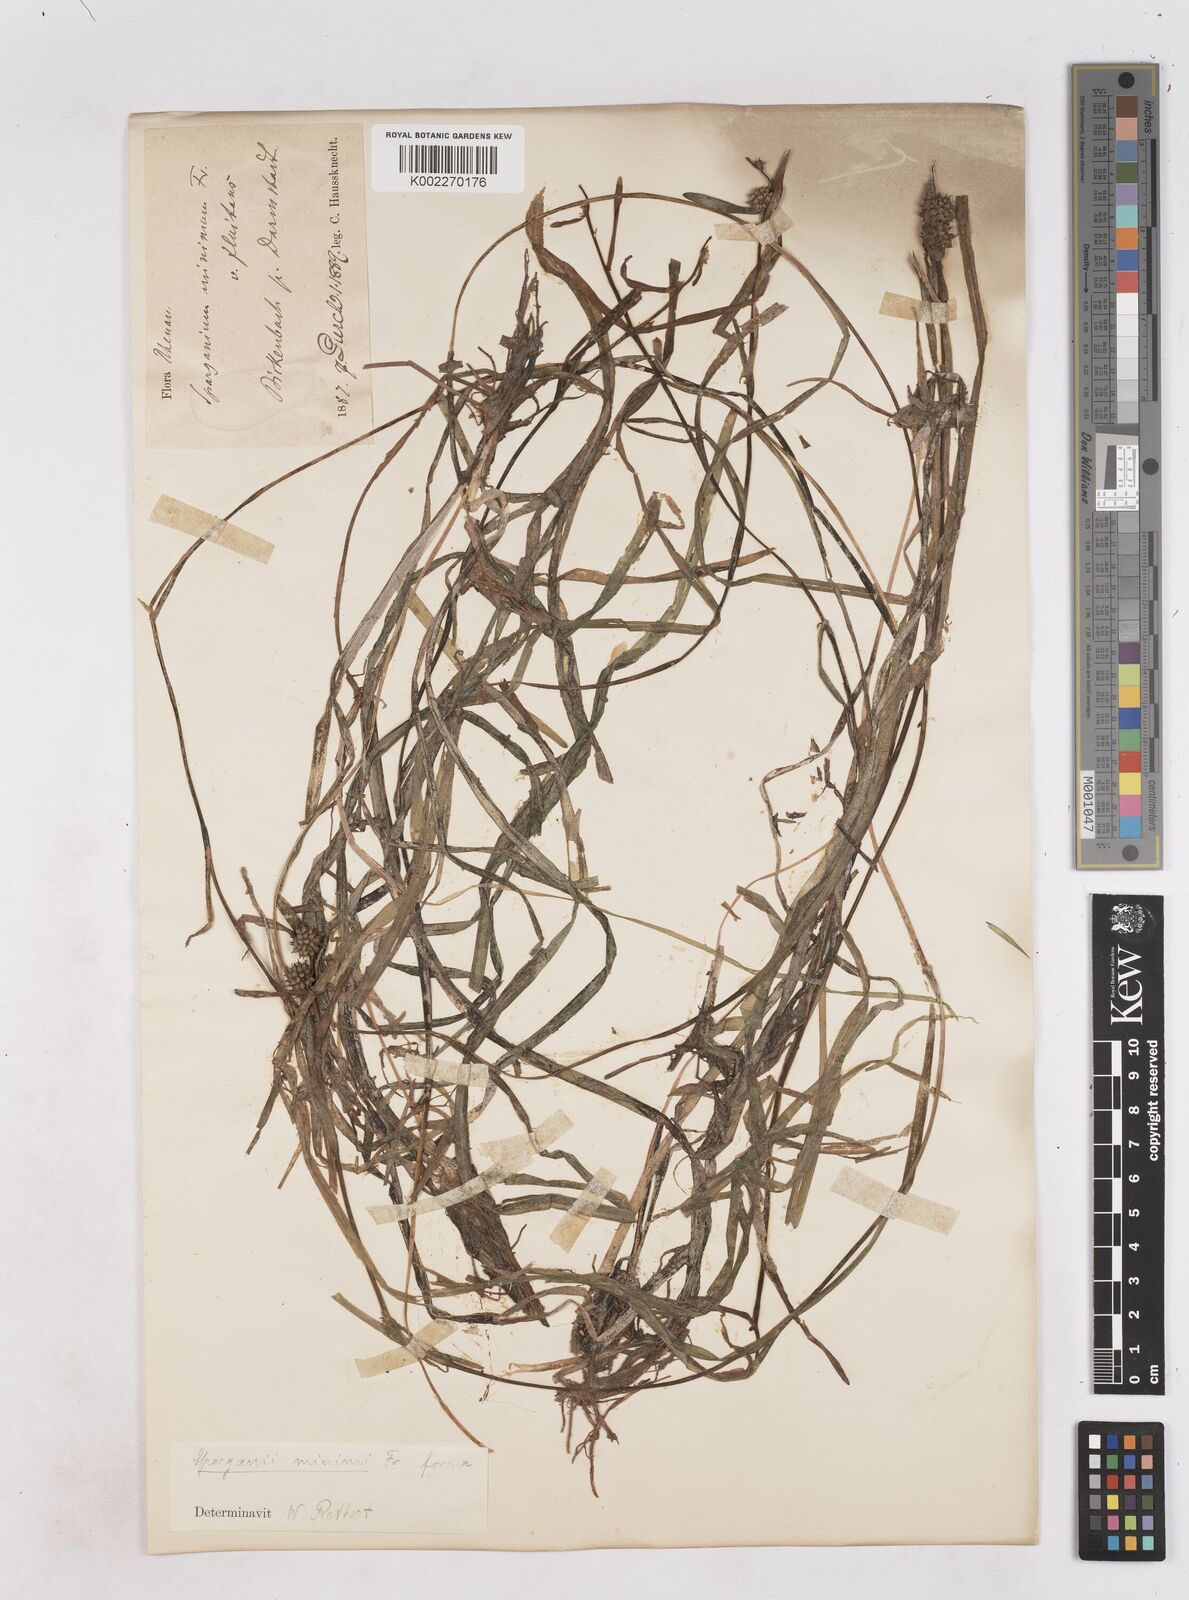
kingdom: Plantae
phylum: Tracheophyta
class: Liliopsida
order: Poales
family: Typhaceae
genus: Sparganium
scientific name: Sparganium natans
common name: Least bur-reed
